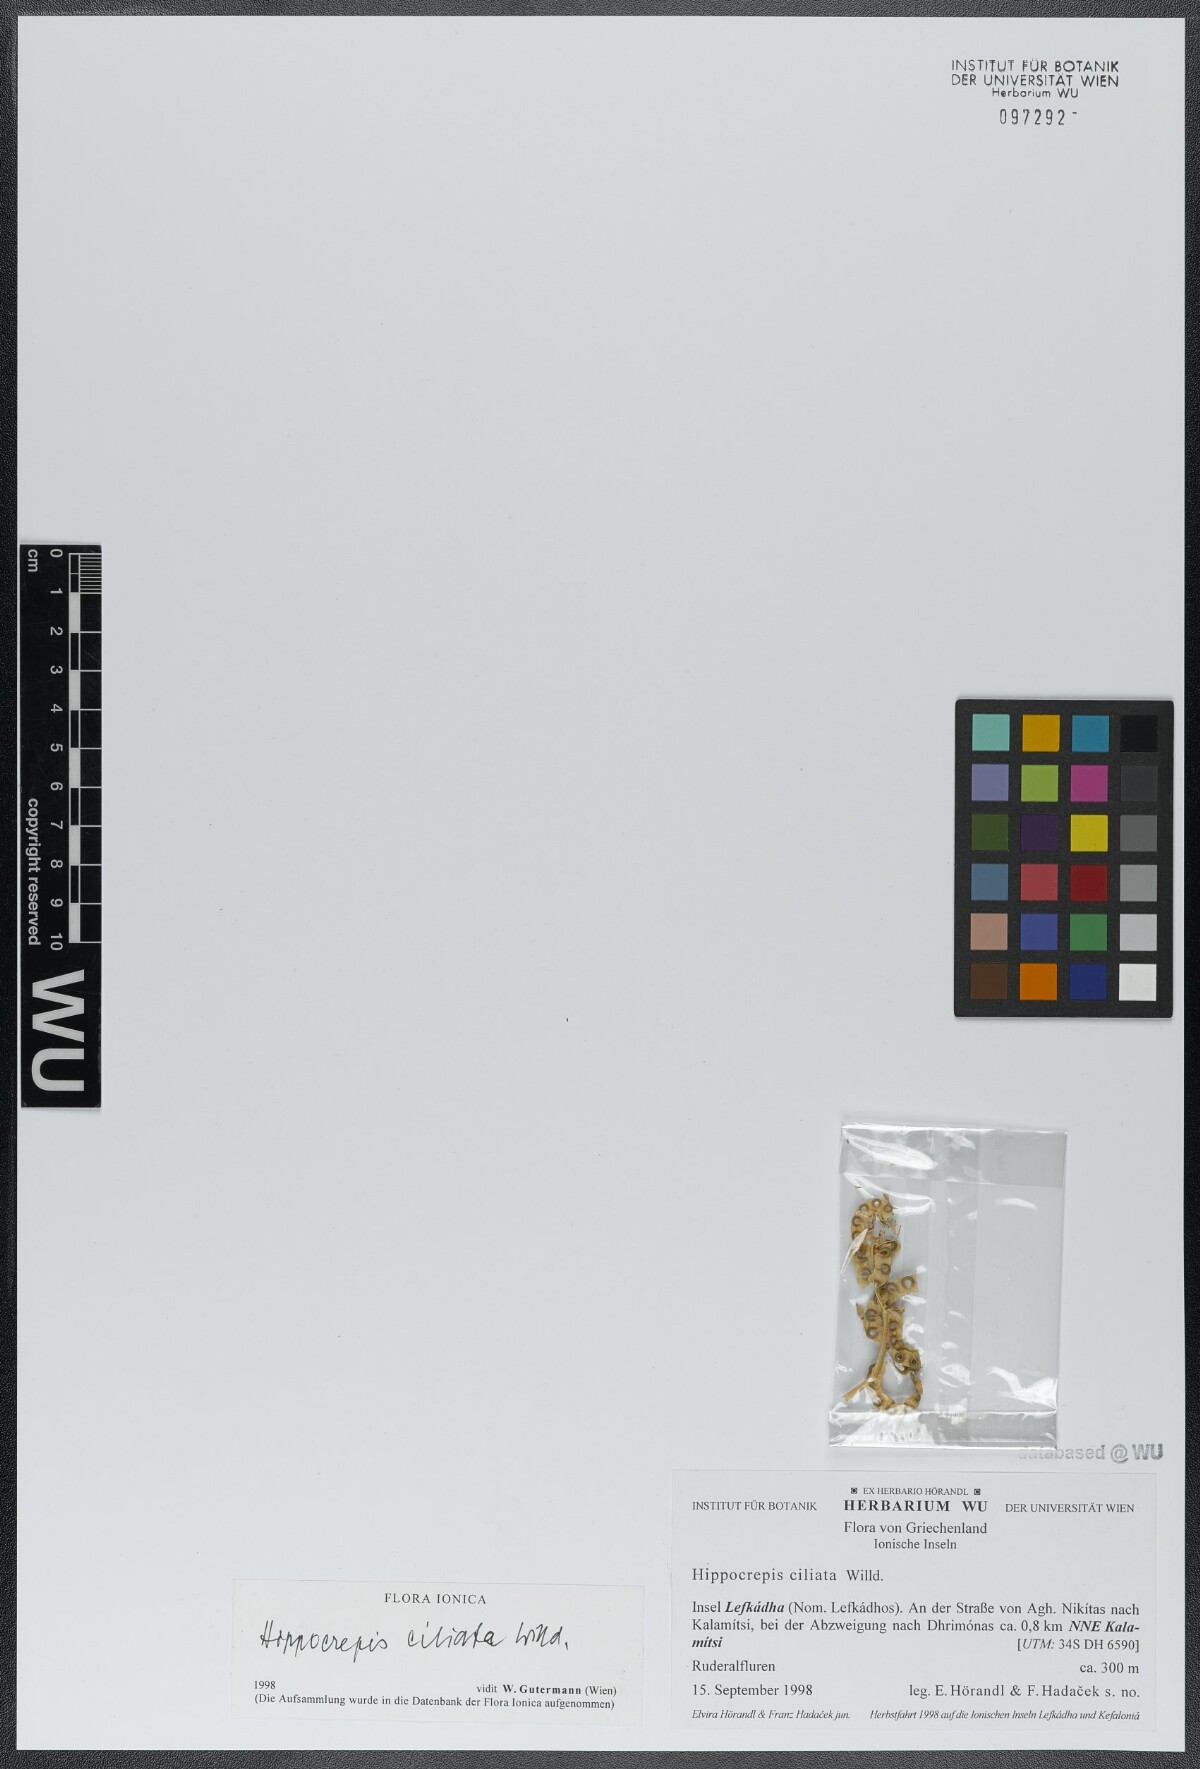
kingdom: Plantae
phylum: Tracheophyta
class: Magnoliopsida
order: Fabales
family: Fabaceae
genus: Hippocrepis
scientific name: Hippocrepis ciliata
